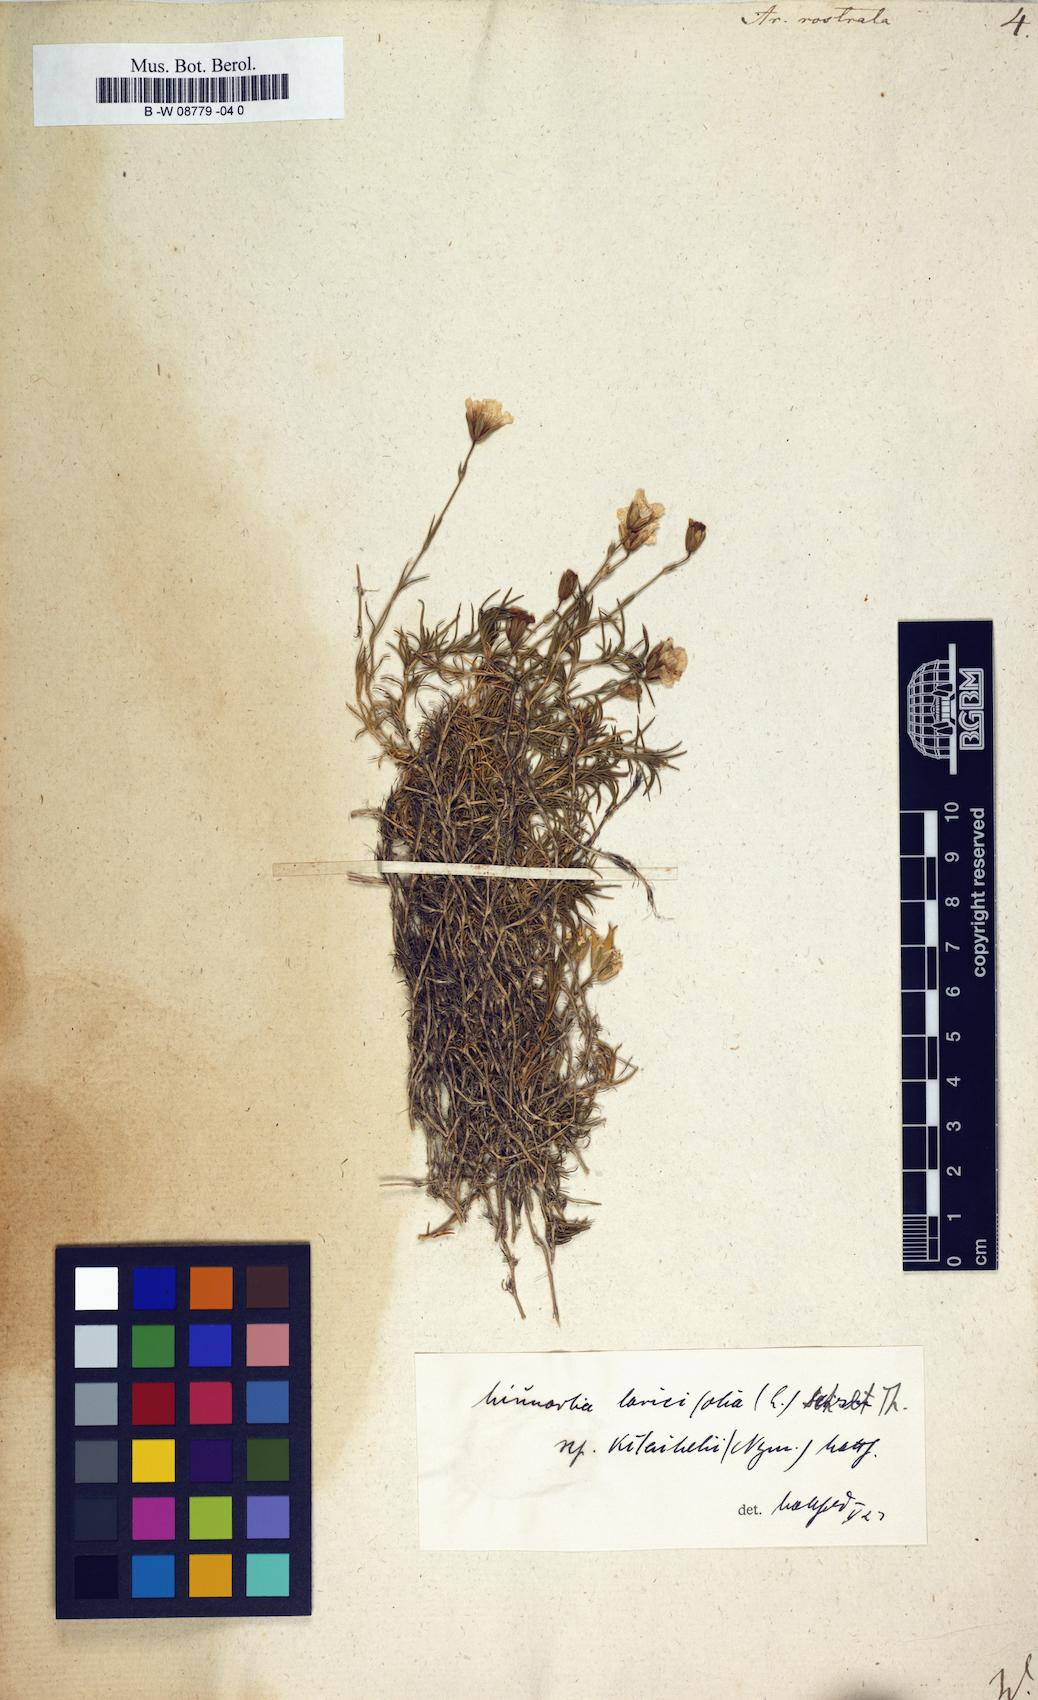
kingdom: Plantae
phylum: Tracheophyta
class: Magnoliopsida
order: Caryophyllales
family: Caryophyllaceae
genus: Cherleria
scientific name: Cherleria
